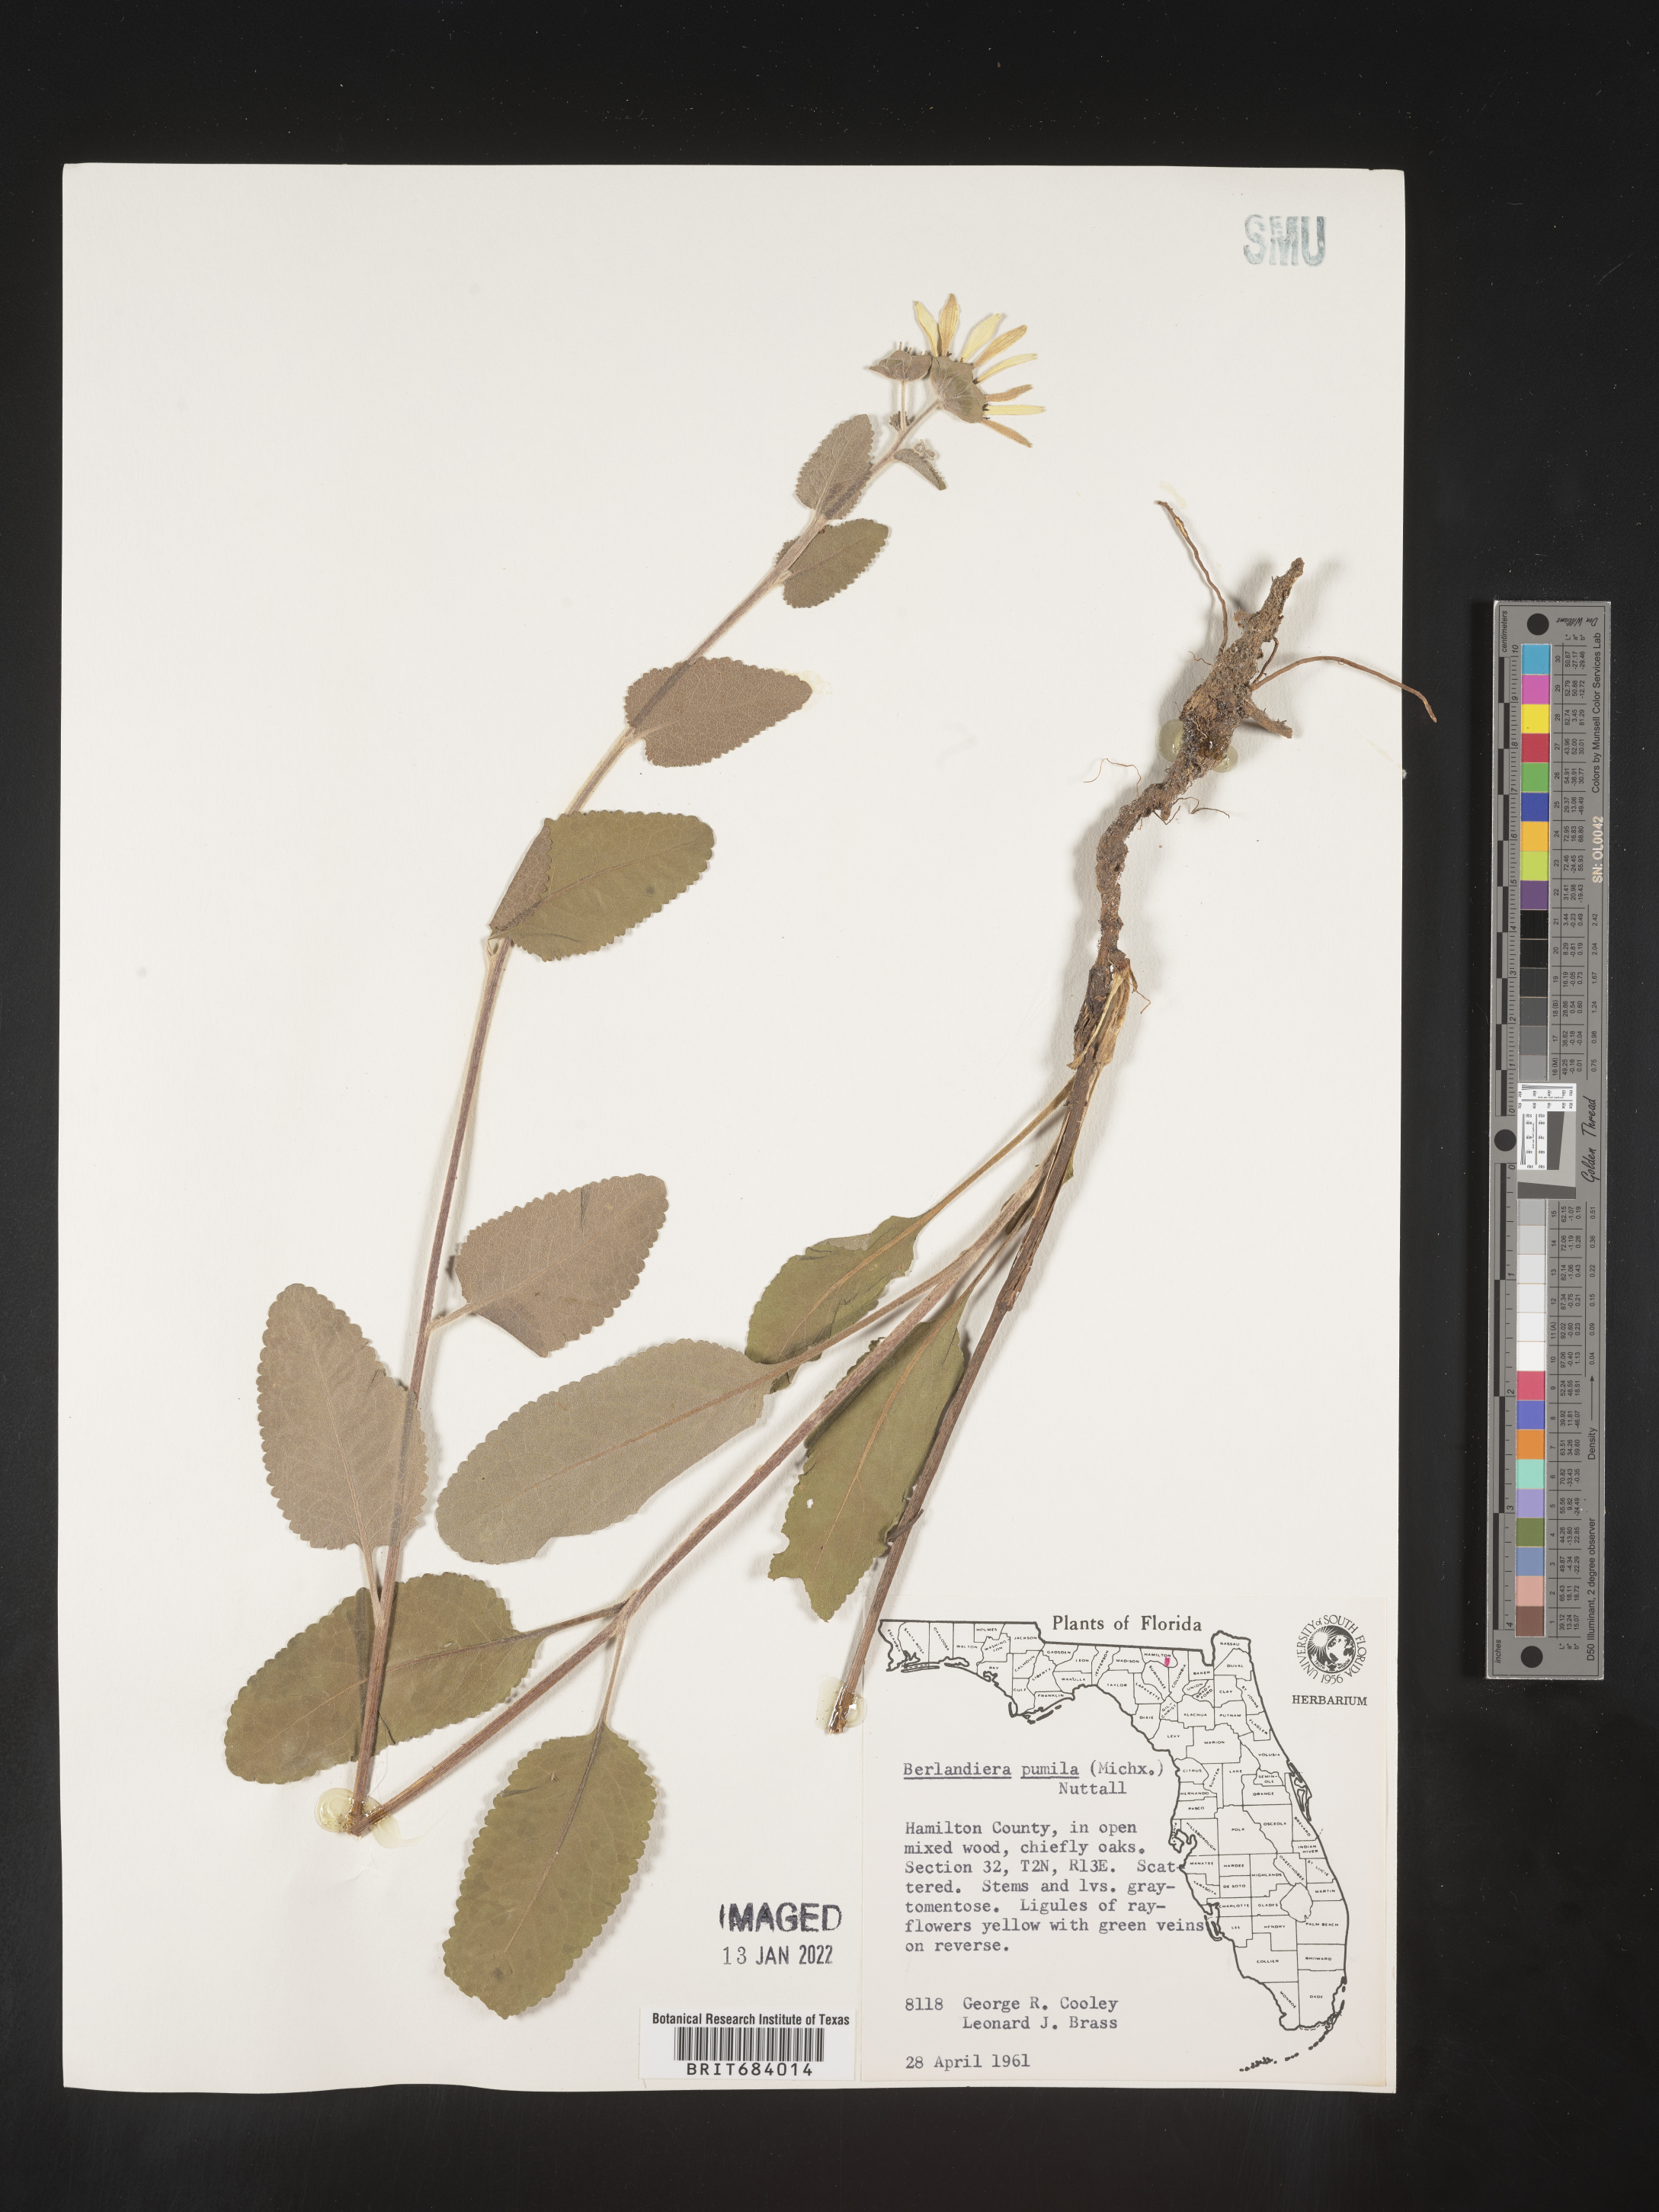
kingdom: Plantae
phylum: Tracheophyta
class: Magnoliopsida
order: Asterales
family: Asteraceae
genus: Berlandiera
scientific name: Berlandiera pumila
